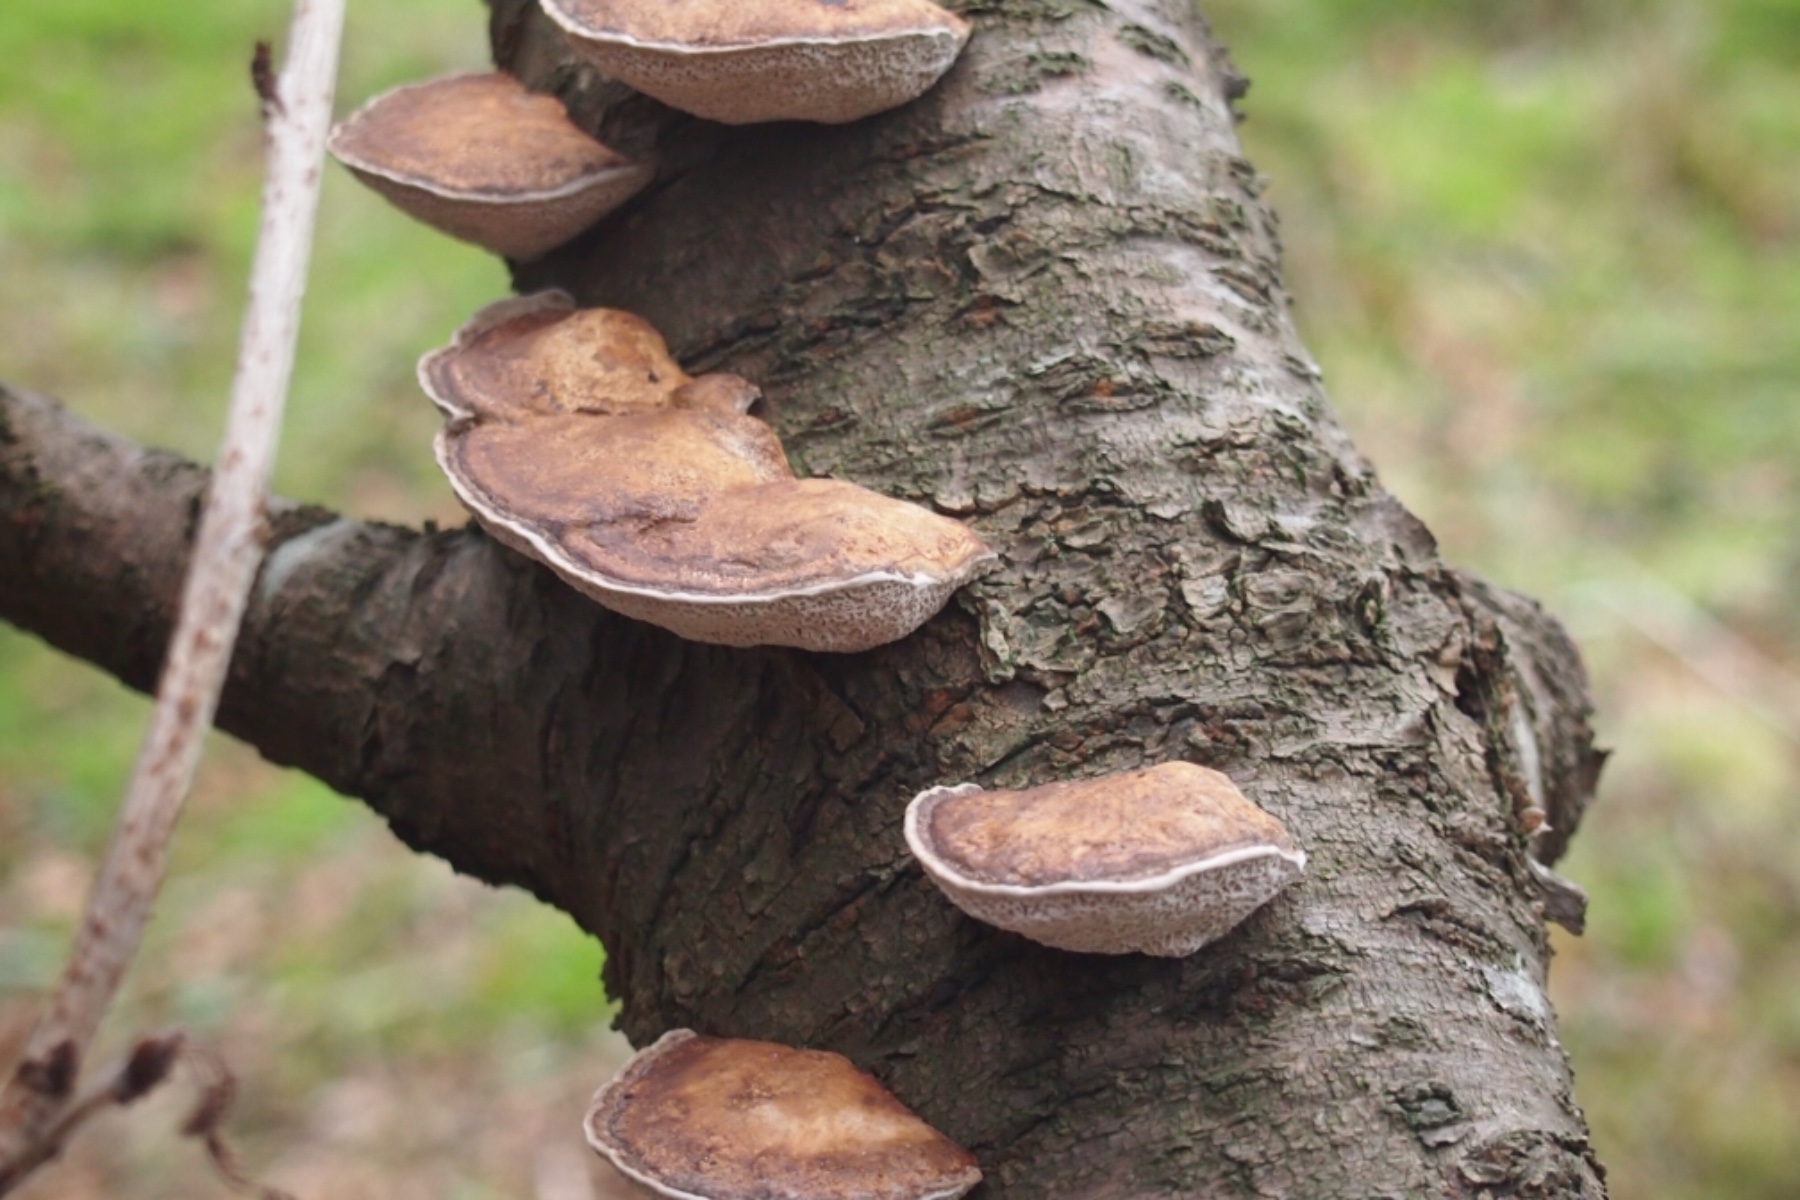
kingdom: Fungi
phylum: Basidiomycota
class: Agaricomycetes
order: Polyporales
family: Polyporaceae
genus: Daedaleopsis
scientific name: Daedaleopsis confragosa
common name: rødmende læderporesvamp
